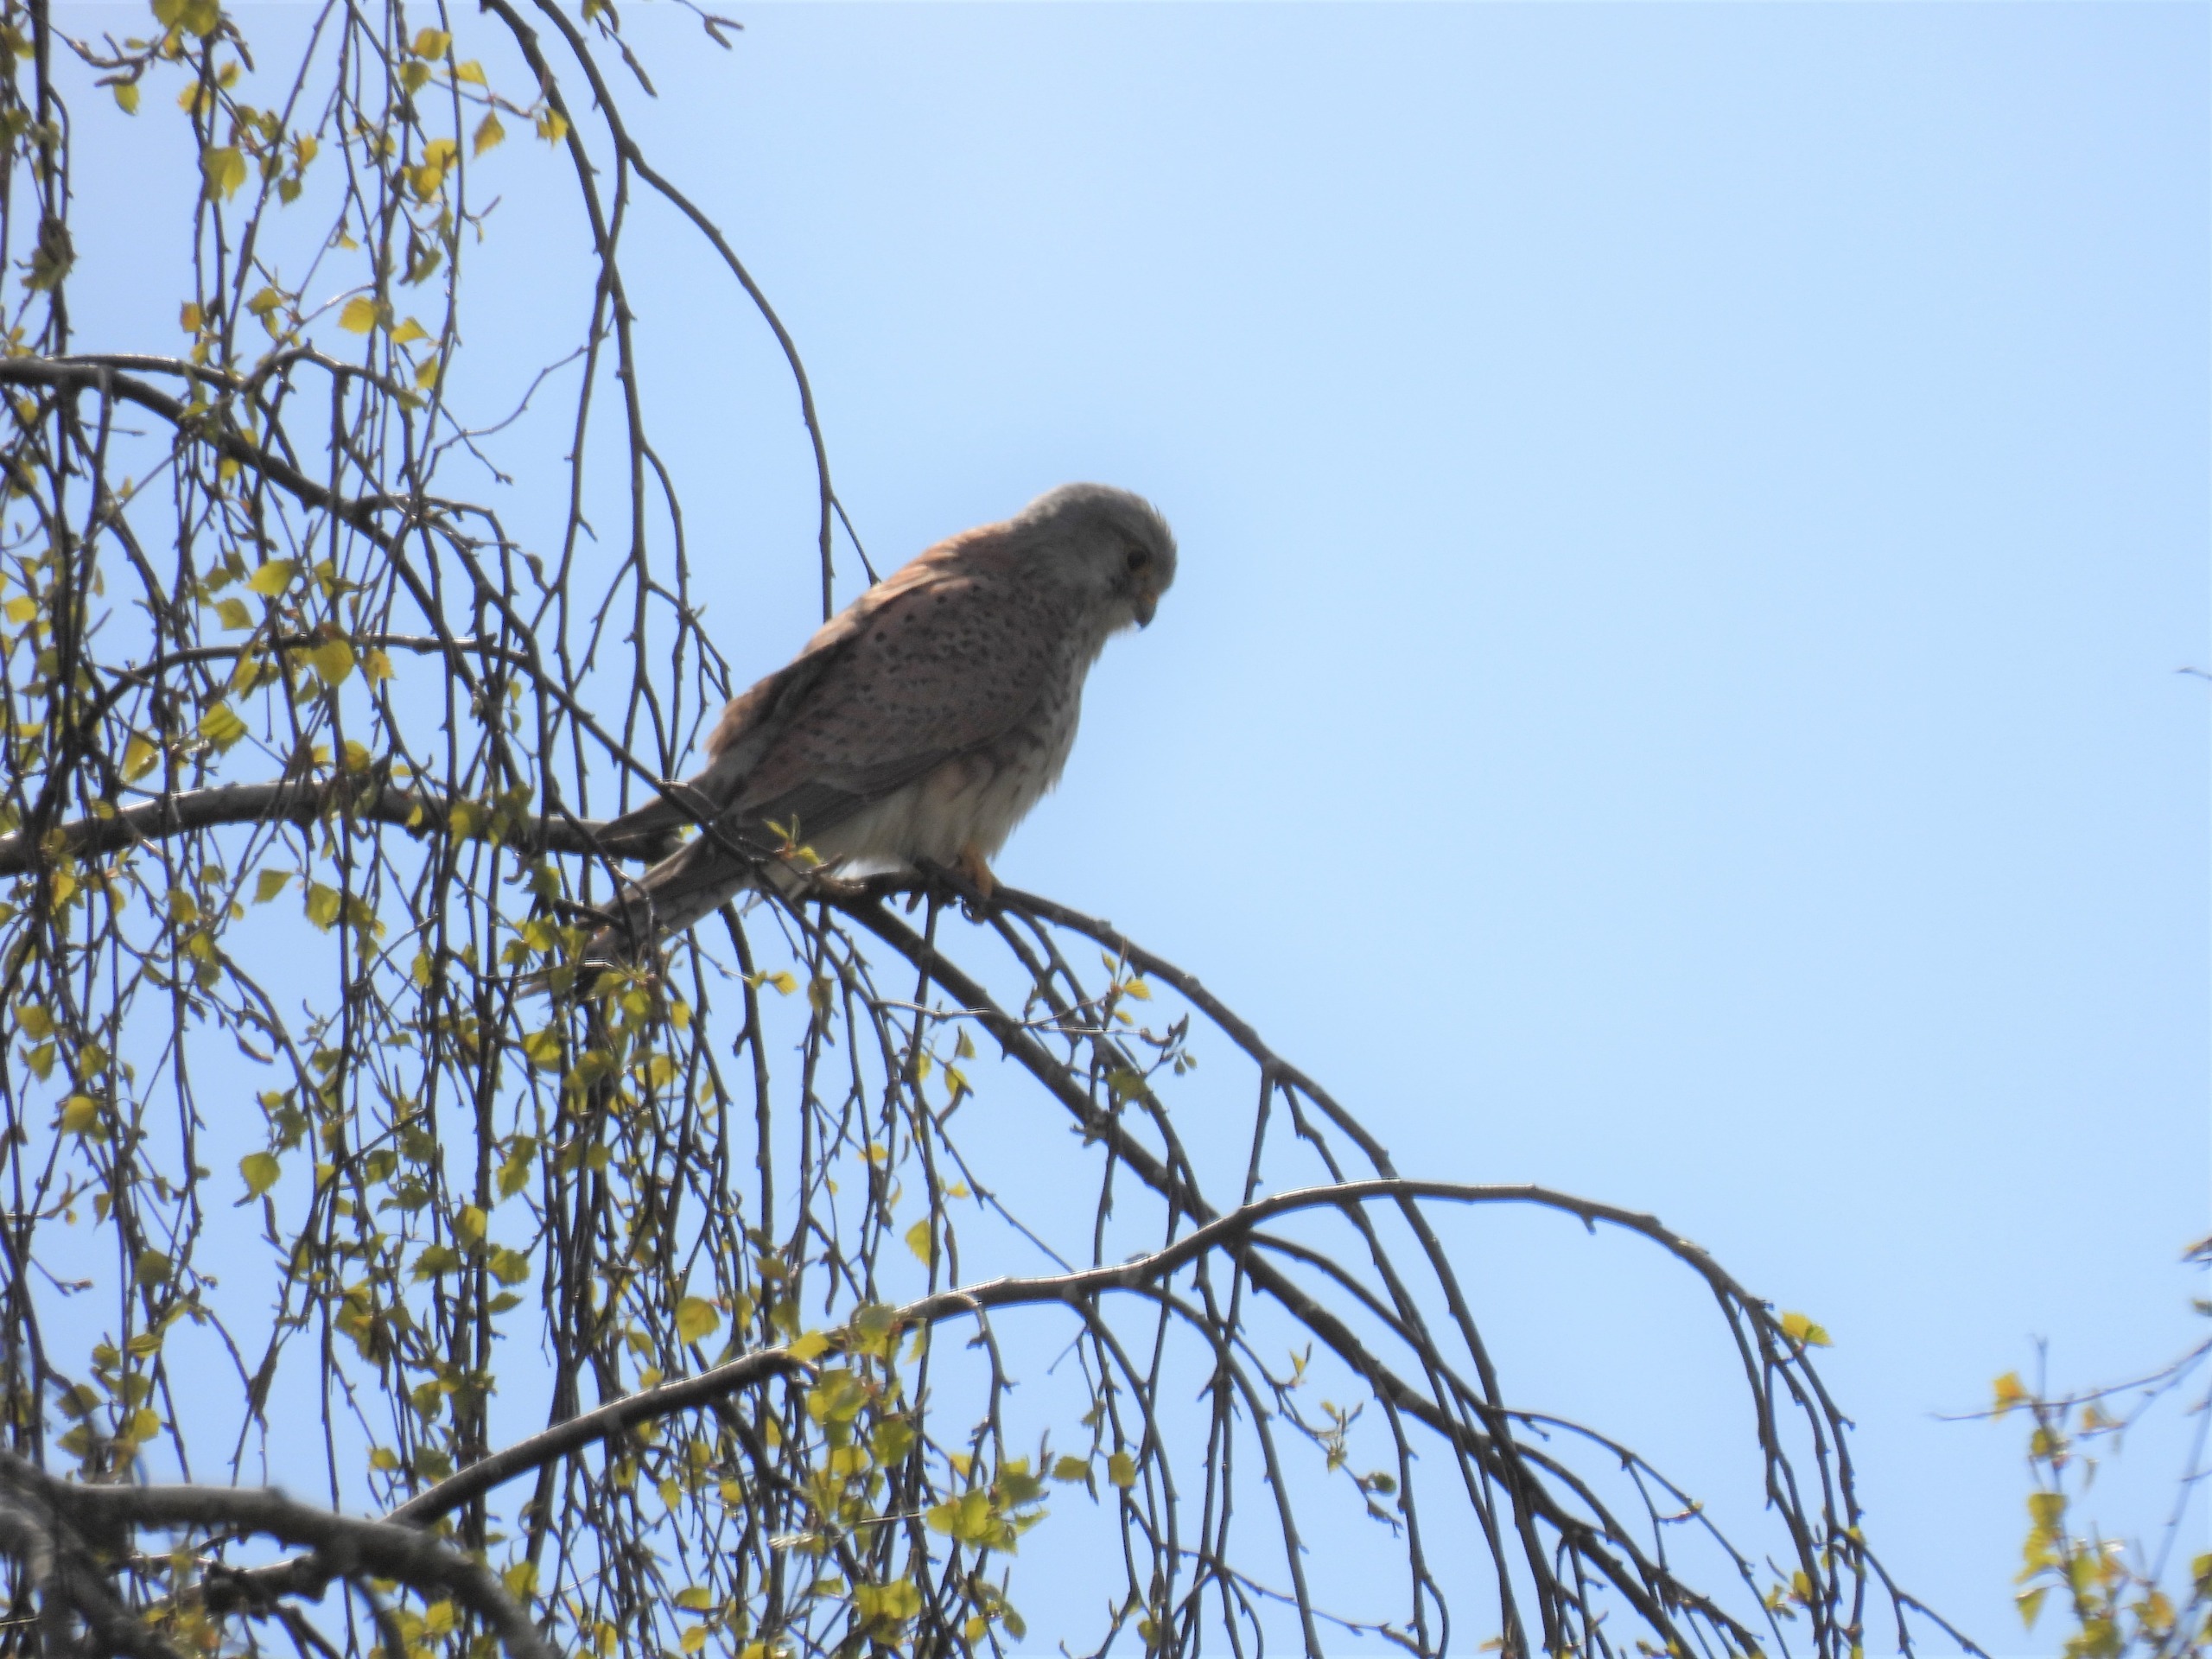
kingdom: Animalia
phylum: Chordata
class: Aves
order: Falconiformes
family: Falconidae
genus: Falco
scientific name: Falco tinnunculus
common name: Tårnfalk
